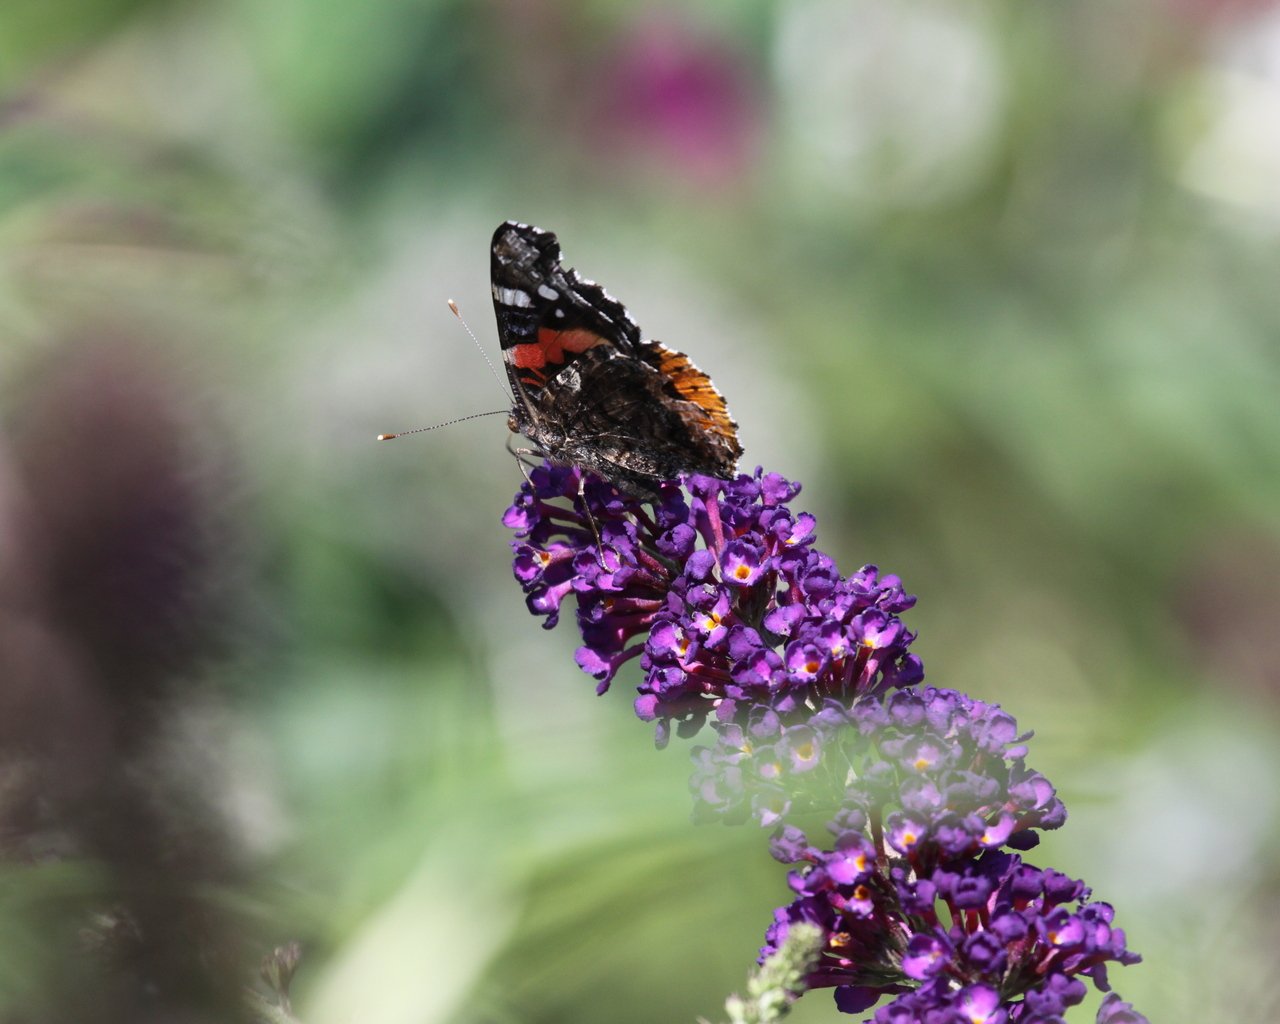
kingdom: Animalia
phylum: Arthropoda
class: Insecta
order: Lepidoptera
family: Nymphalidae
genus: Vanessa
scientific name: Vanessa atalanta
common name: Red Admiral
